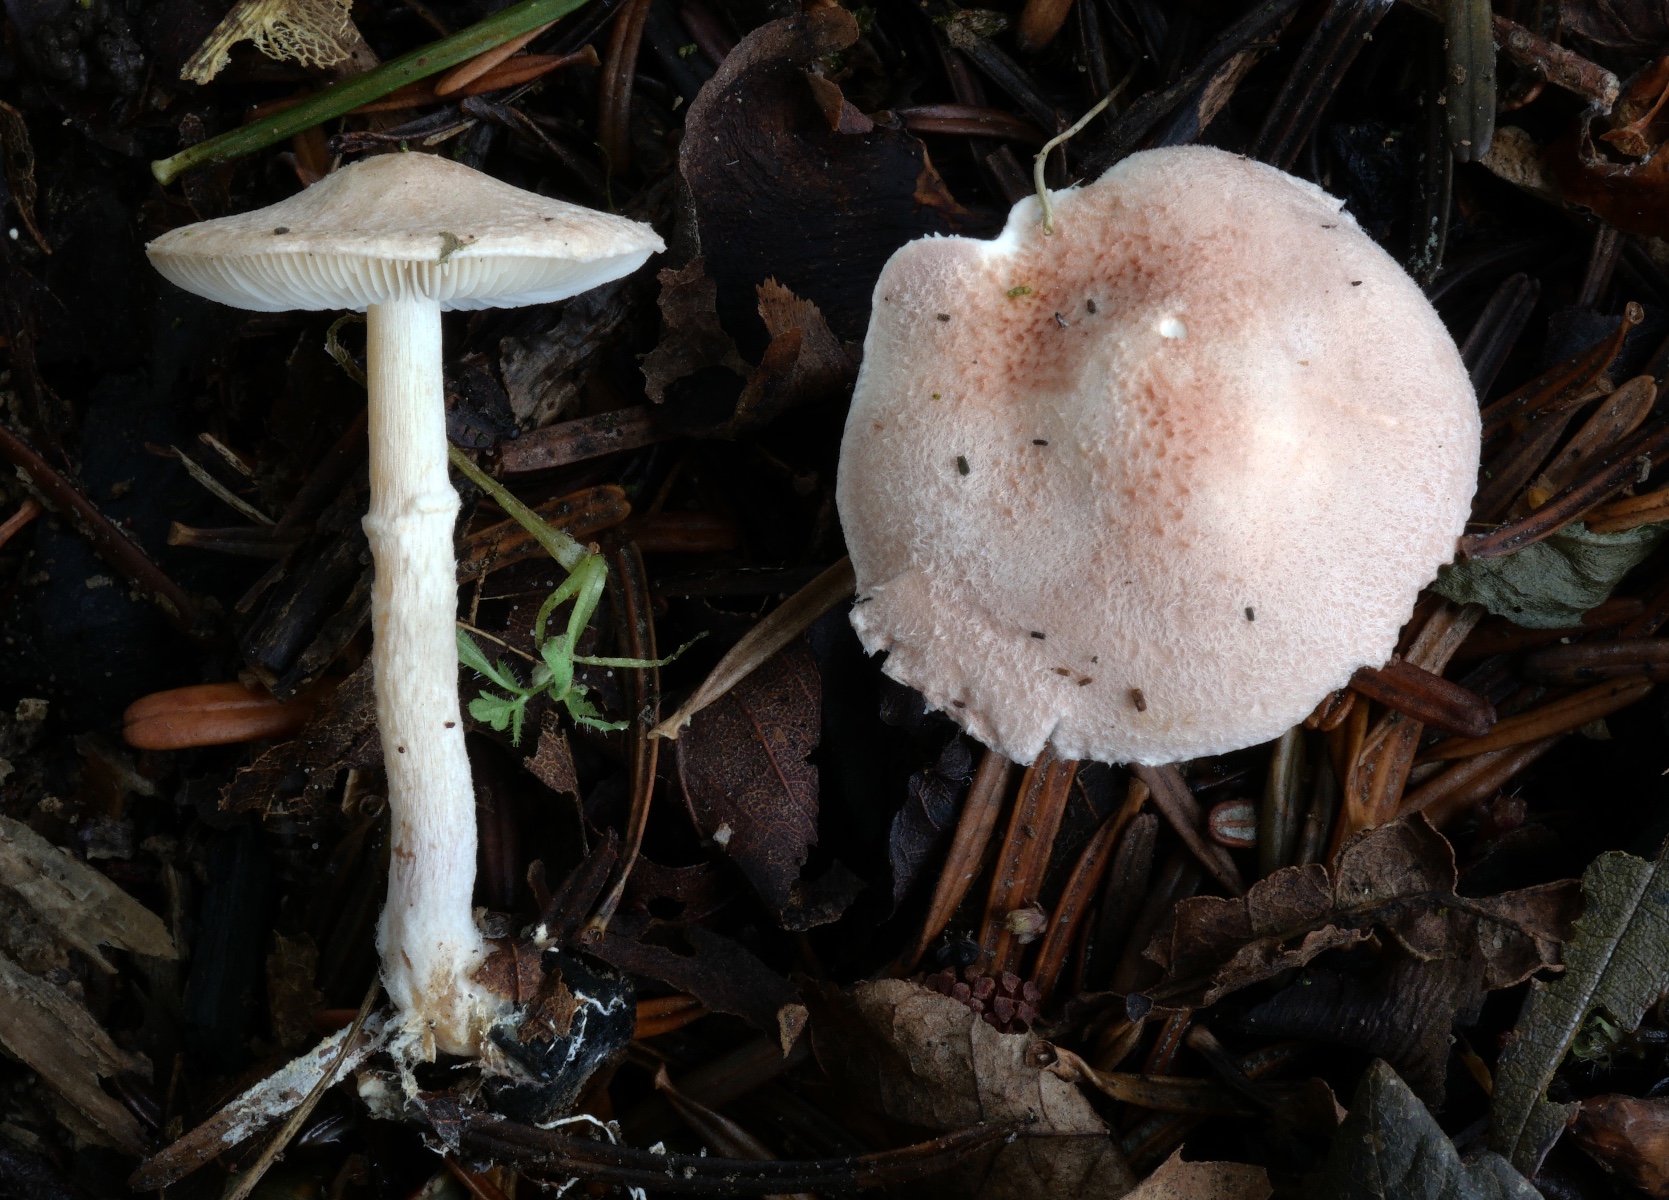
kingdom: Fungi
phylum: Basidiomycota
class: Agaricomycetes
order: Agaricales
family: Agaricaceae
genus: Lepiota
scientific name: Lepiota subincarnata
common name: kødfarvet parasolhat
